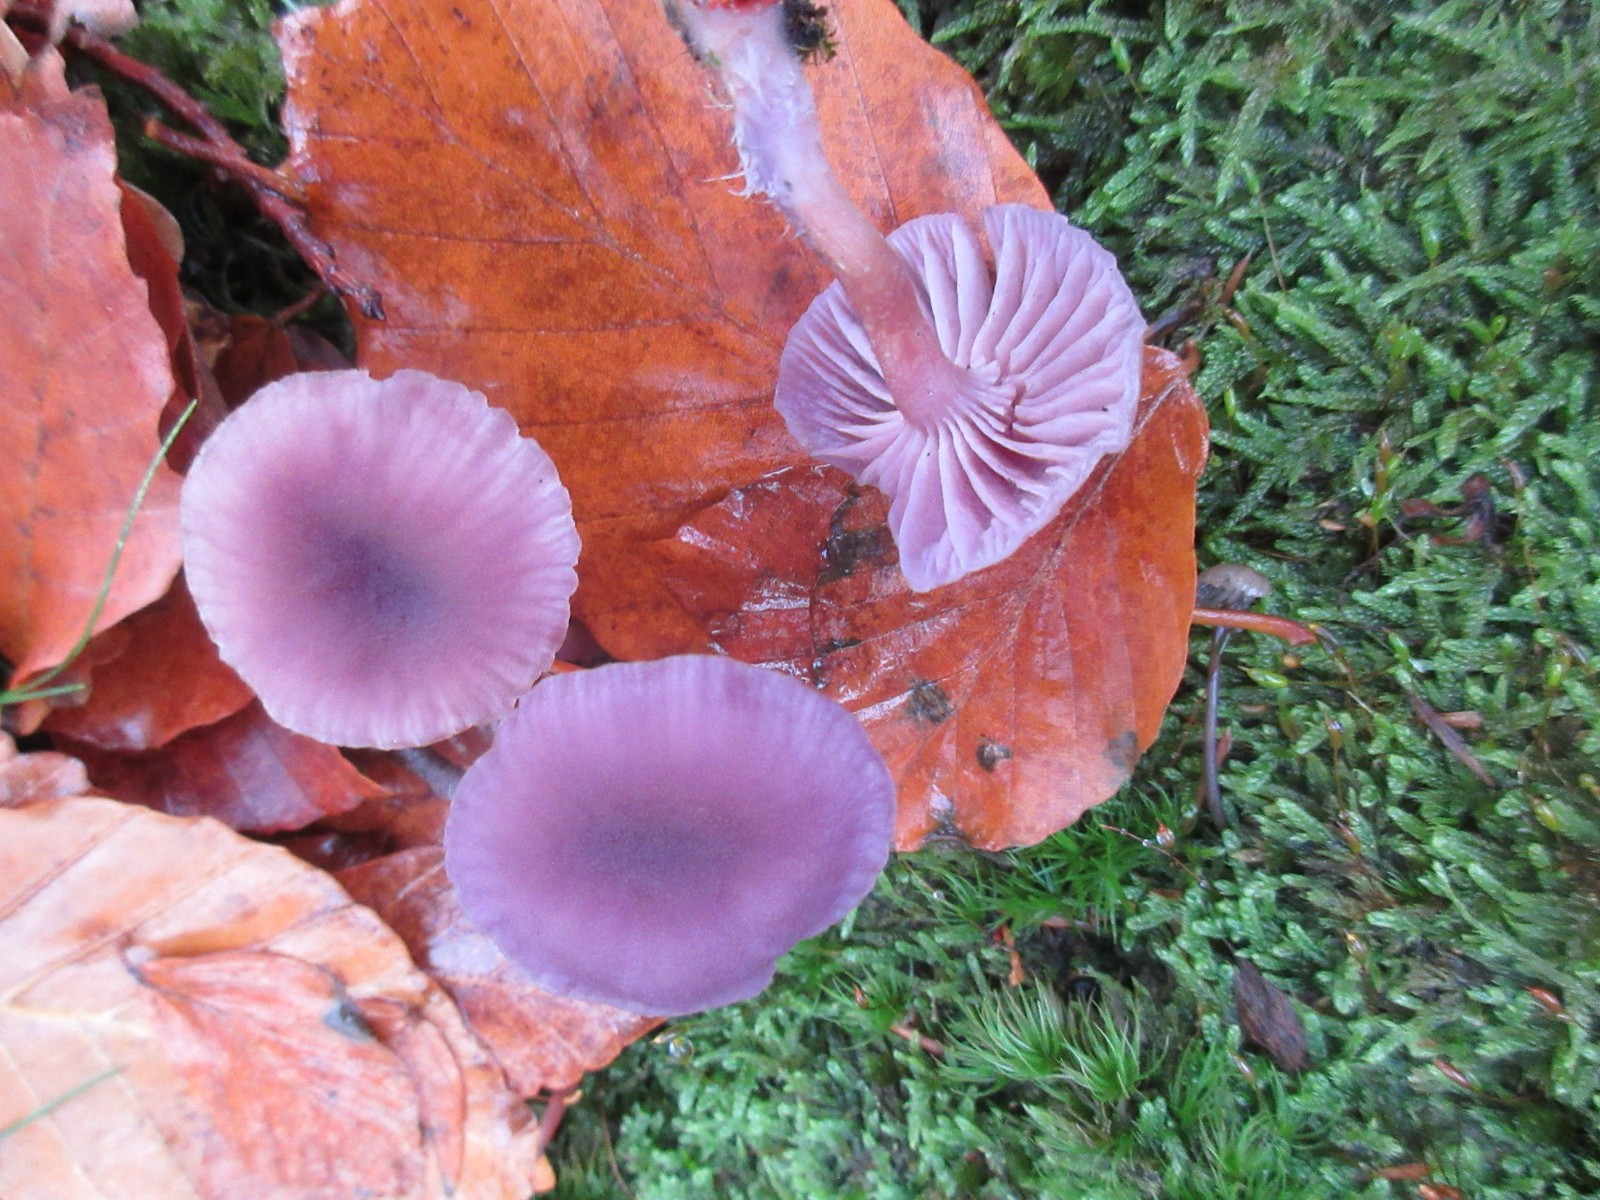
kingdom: Fungi
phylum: Basidiomycota
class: Agaricomycetes
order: Agaricales
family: Hydnangiaceae
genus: Laccaria
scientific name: Laccaria amethystina
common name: violet ametysthat
